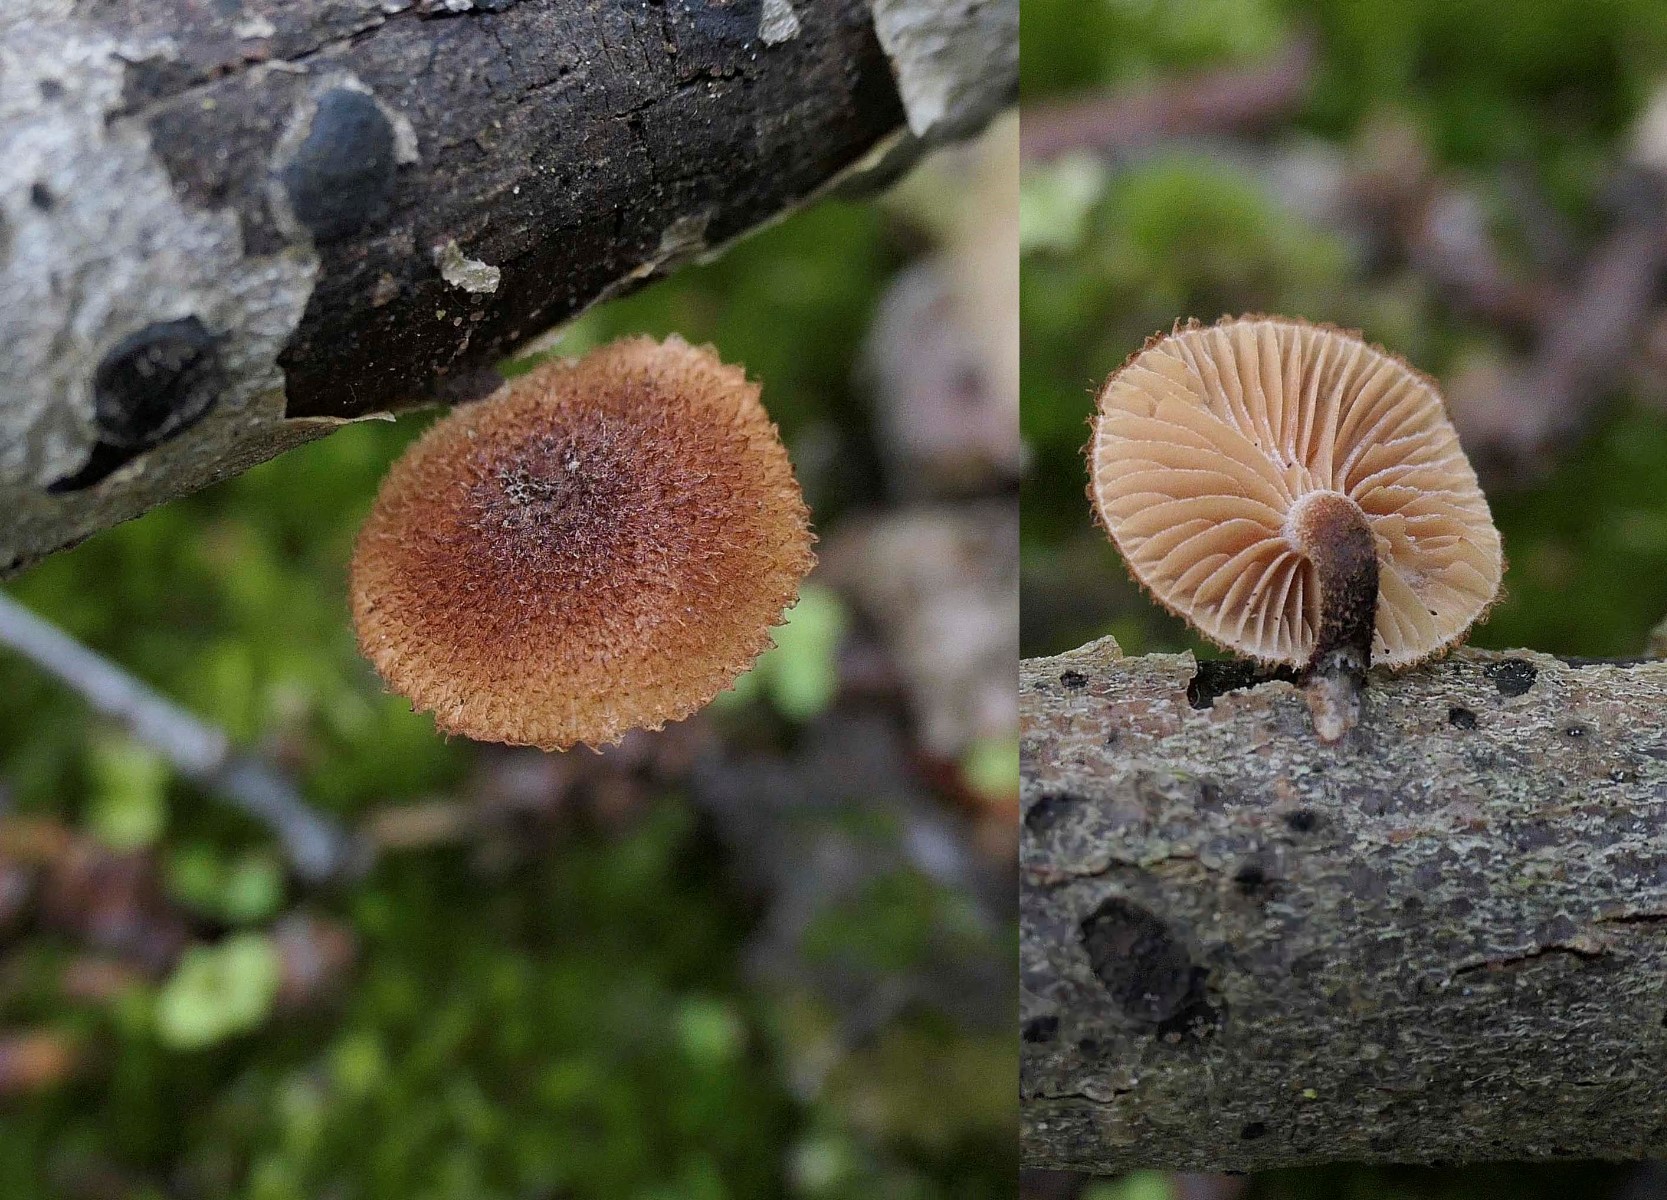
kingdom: Fungi
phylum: Basidiomycota
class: Agaricomycetes
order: Agaricales
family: Tubariaceae
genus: Phaeomarasmius
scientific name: Phaeomarasmius erinaceus
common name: spidsskælhat
